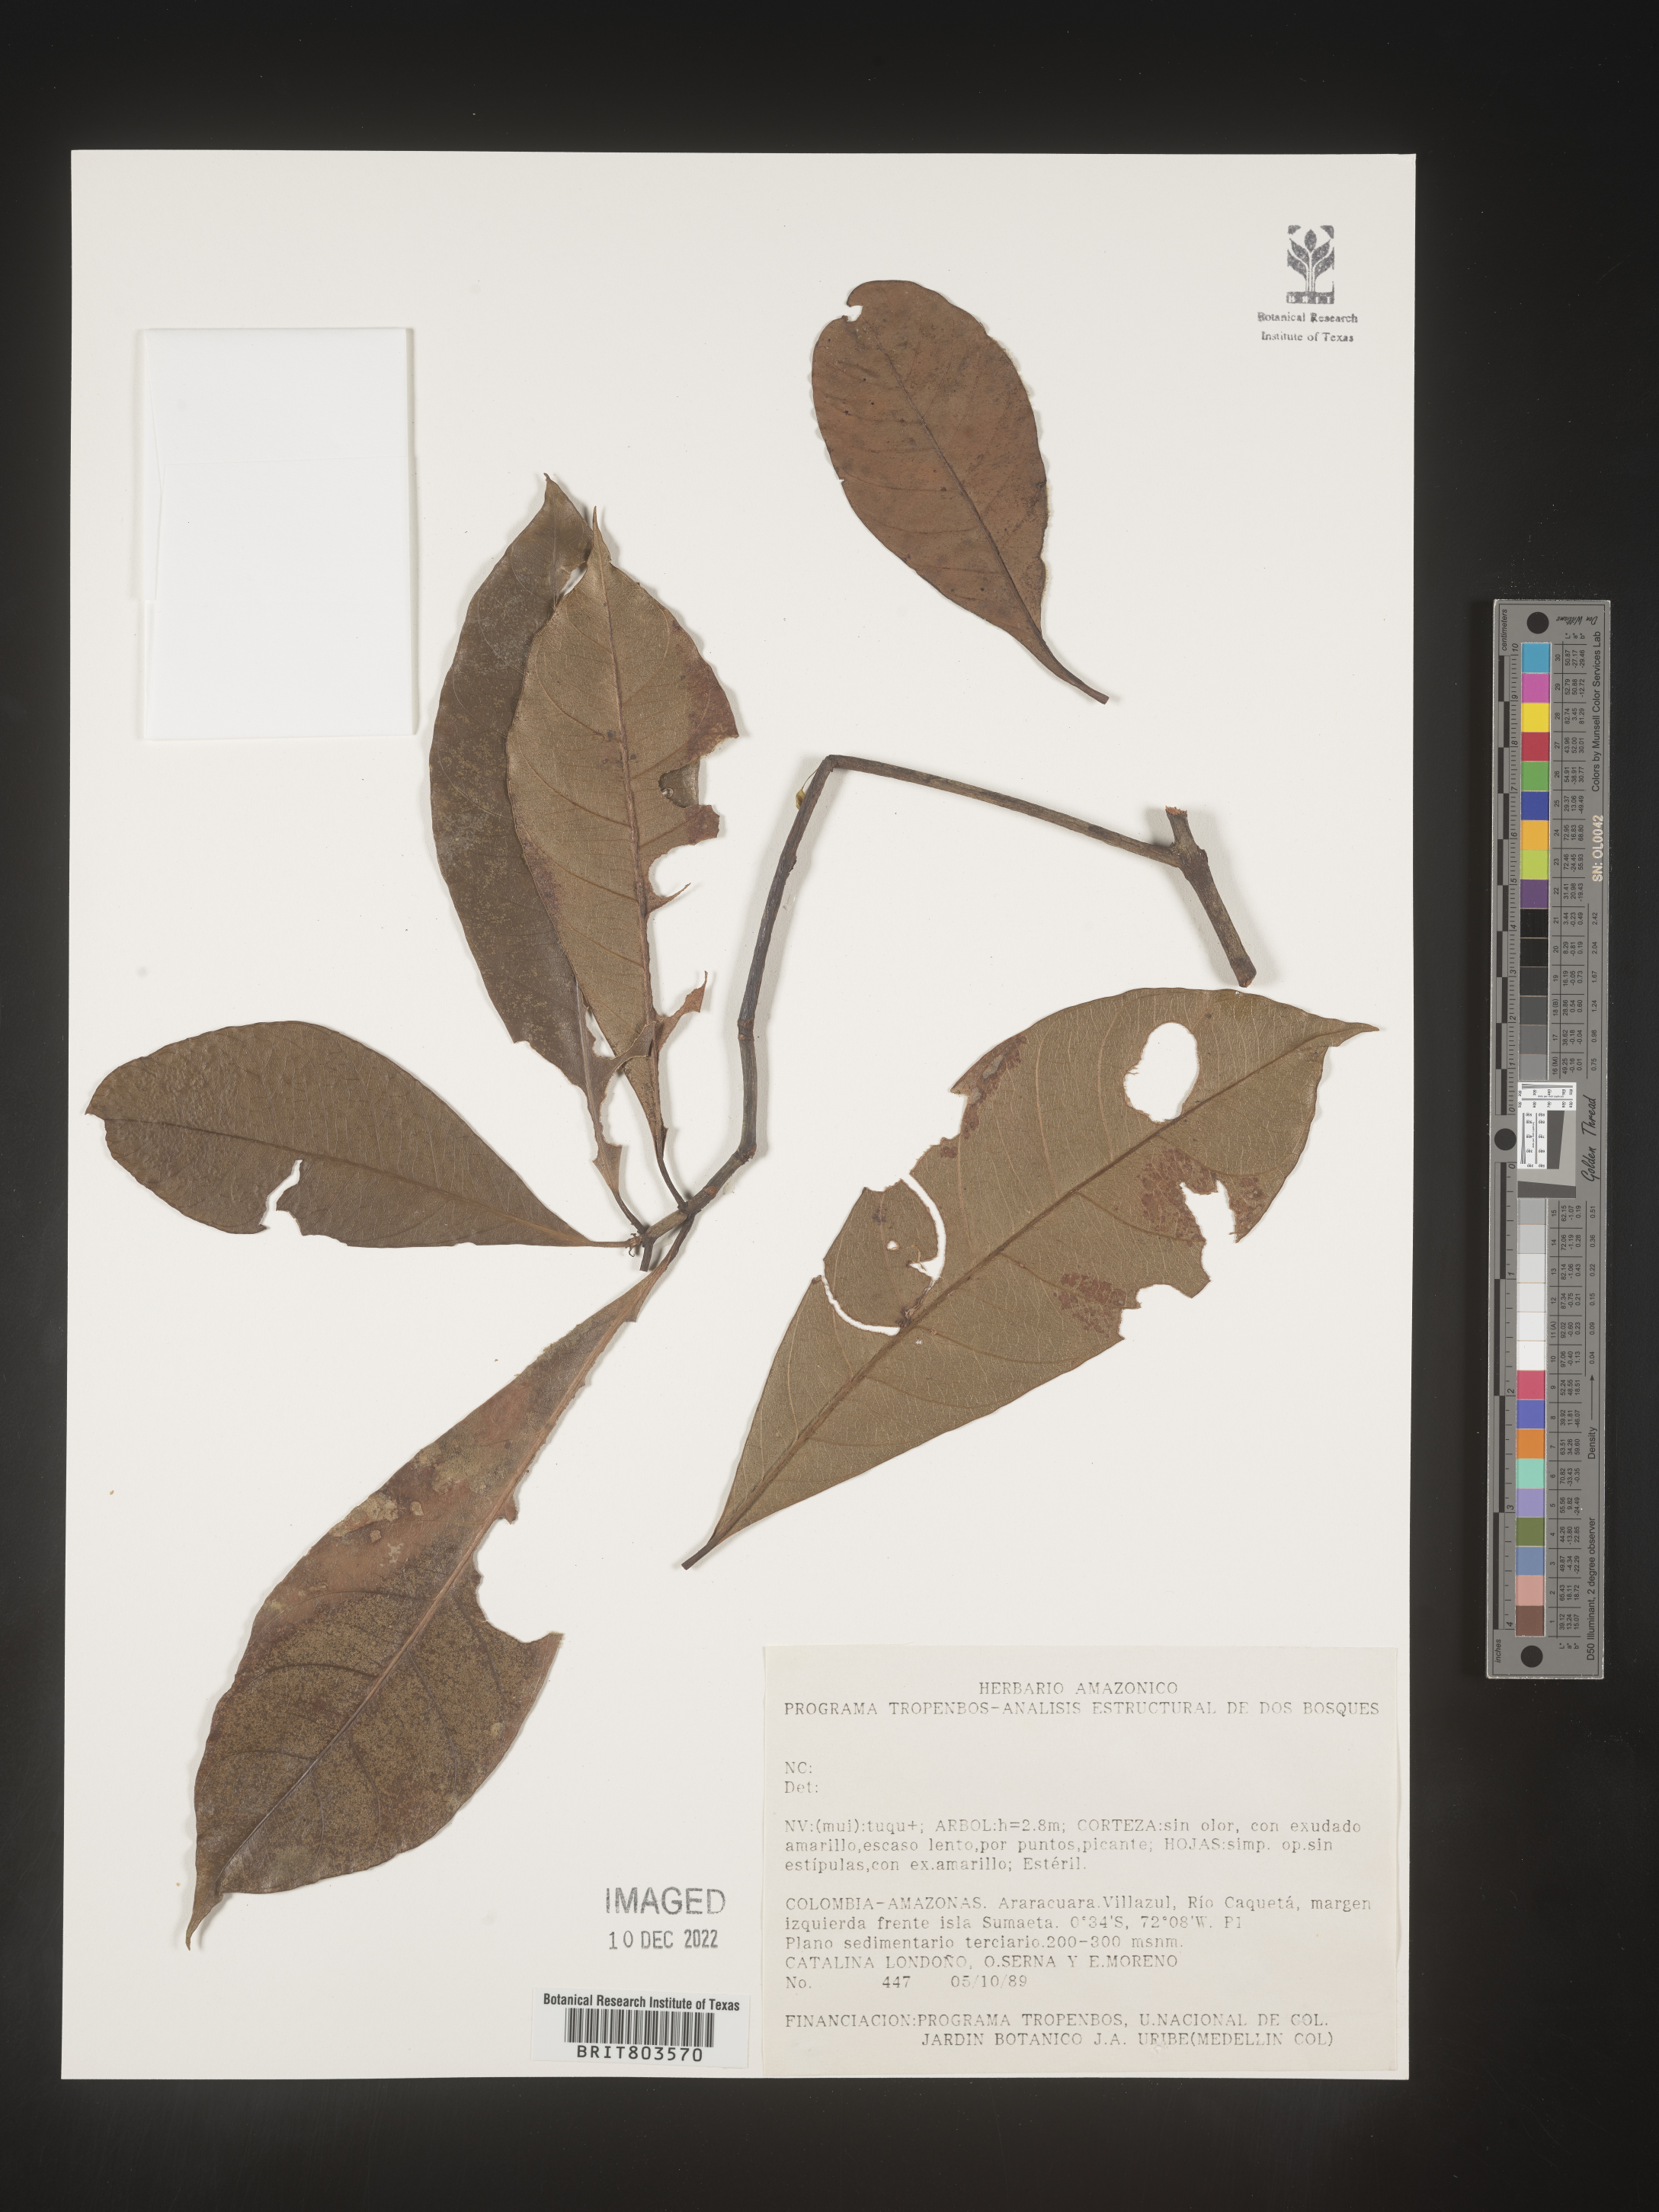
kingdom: Plantae
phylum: Tracheophyta
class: Magnoliopsida
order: Malpighiales
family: Clusiaceae
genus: Tovomita
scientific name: Tovomita
